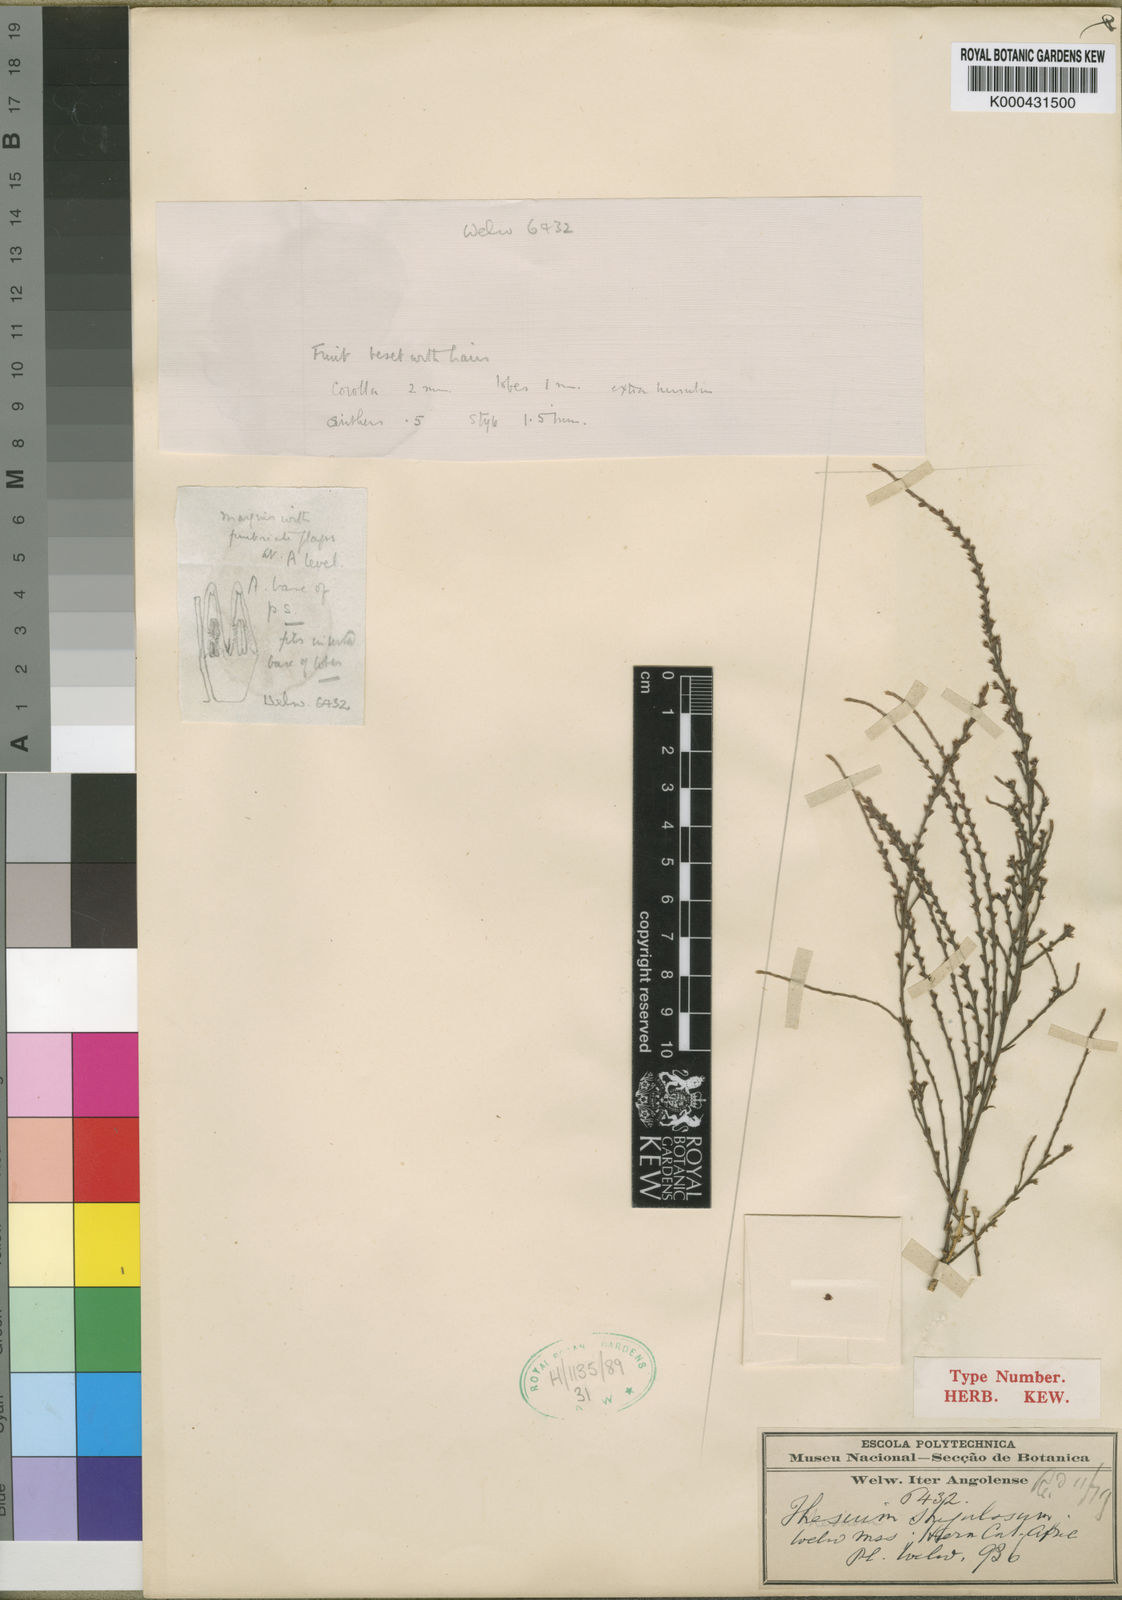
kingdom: Plantae
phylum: Tracheophyta
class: Magnoliopsida
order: Santalales
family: Thesiaceae
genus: Thesium
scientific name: Thesium strigulosum
